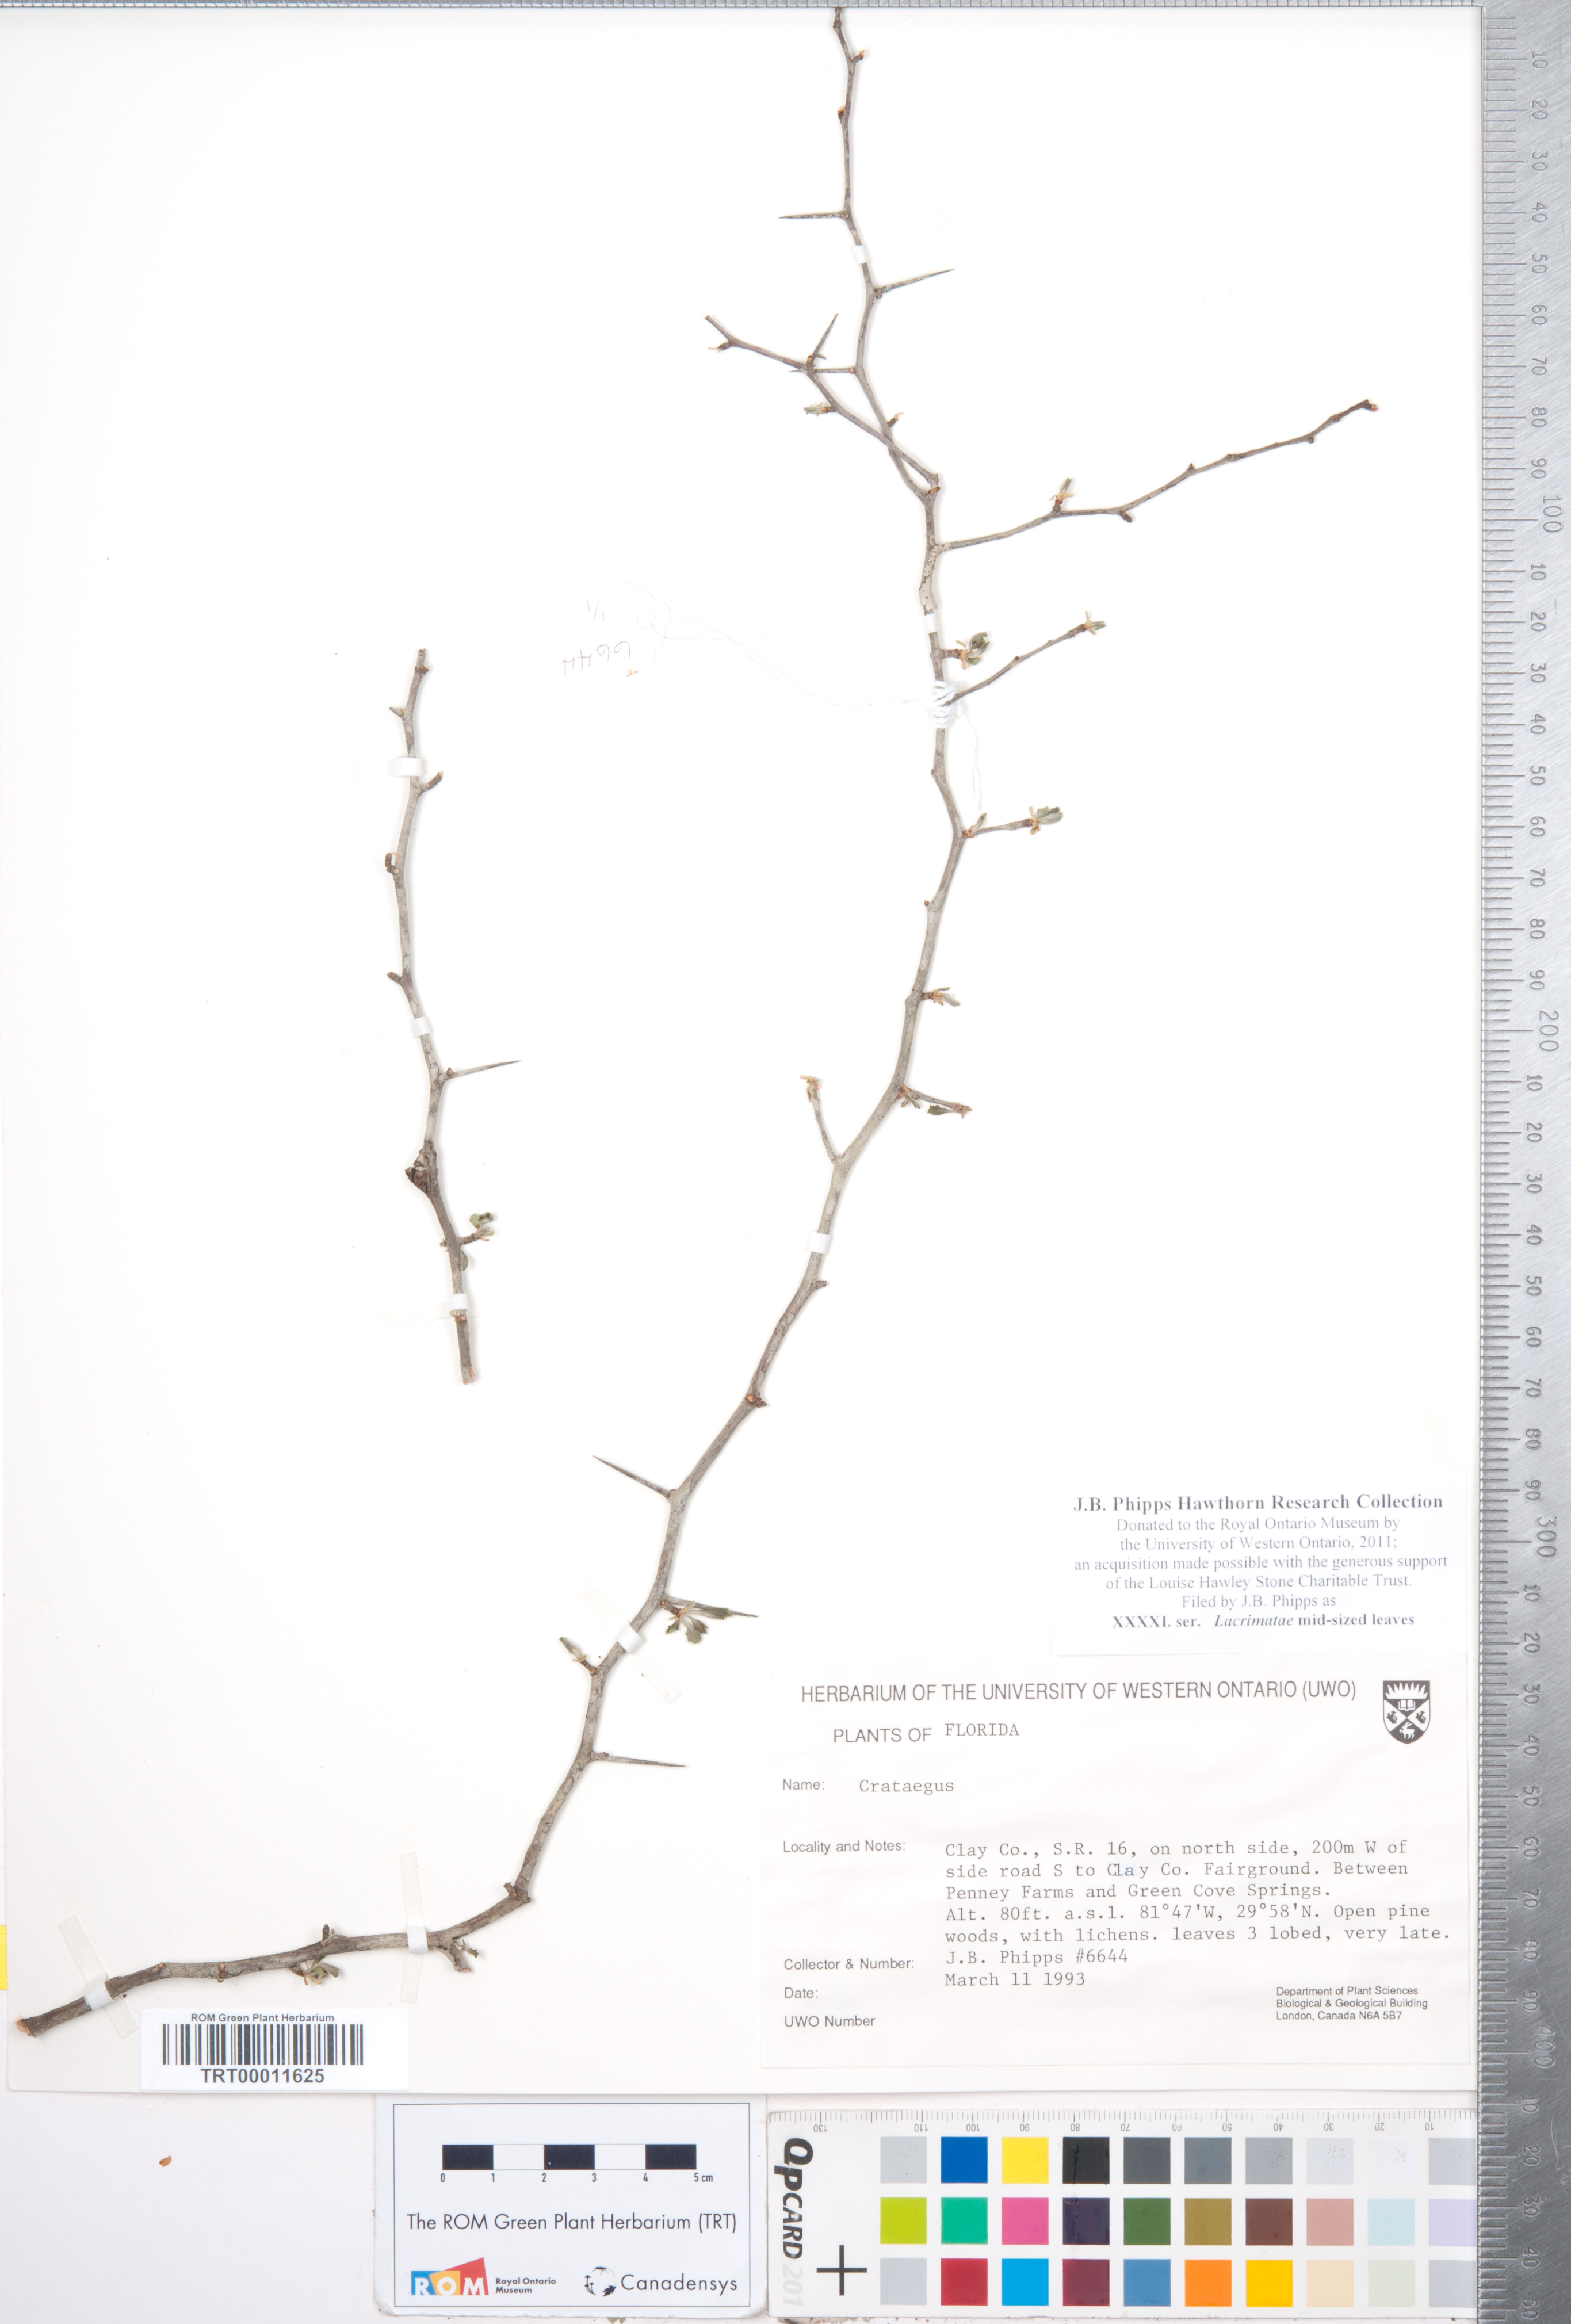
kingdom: Plantae
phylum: Tracheophyta
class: Magnoliopsida
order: Rosales
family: Rosaceae
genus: Crataegus
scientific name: Crataegus
